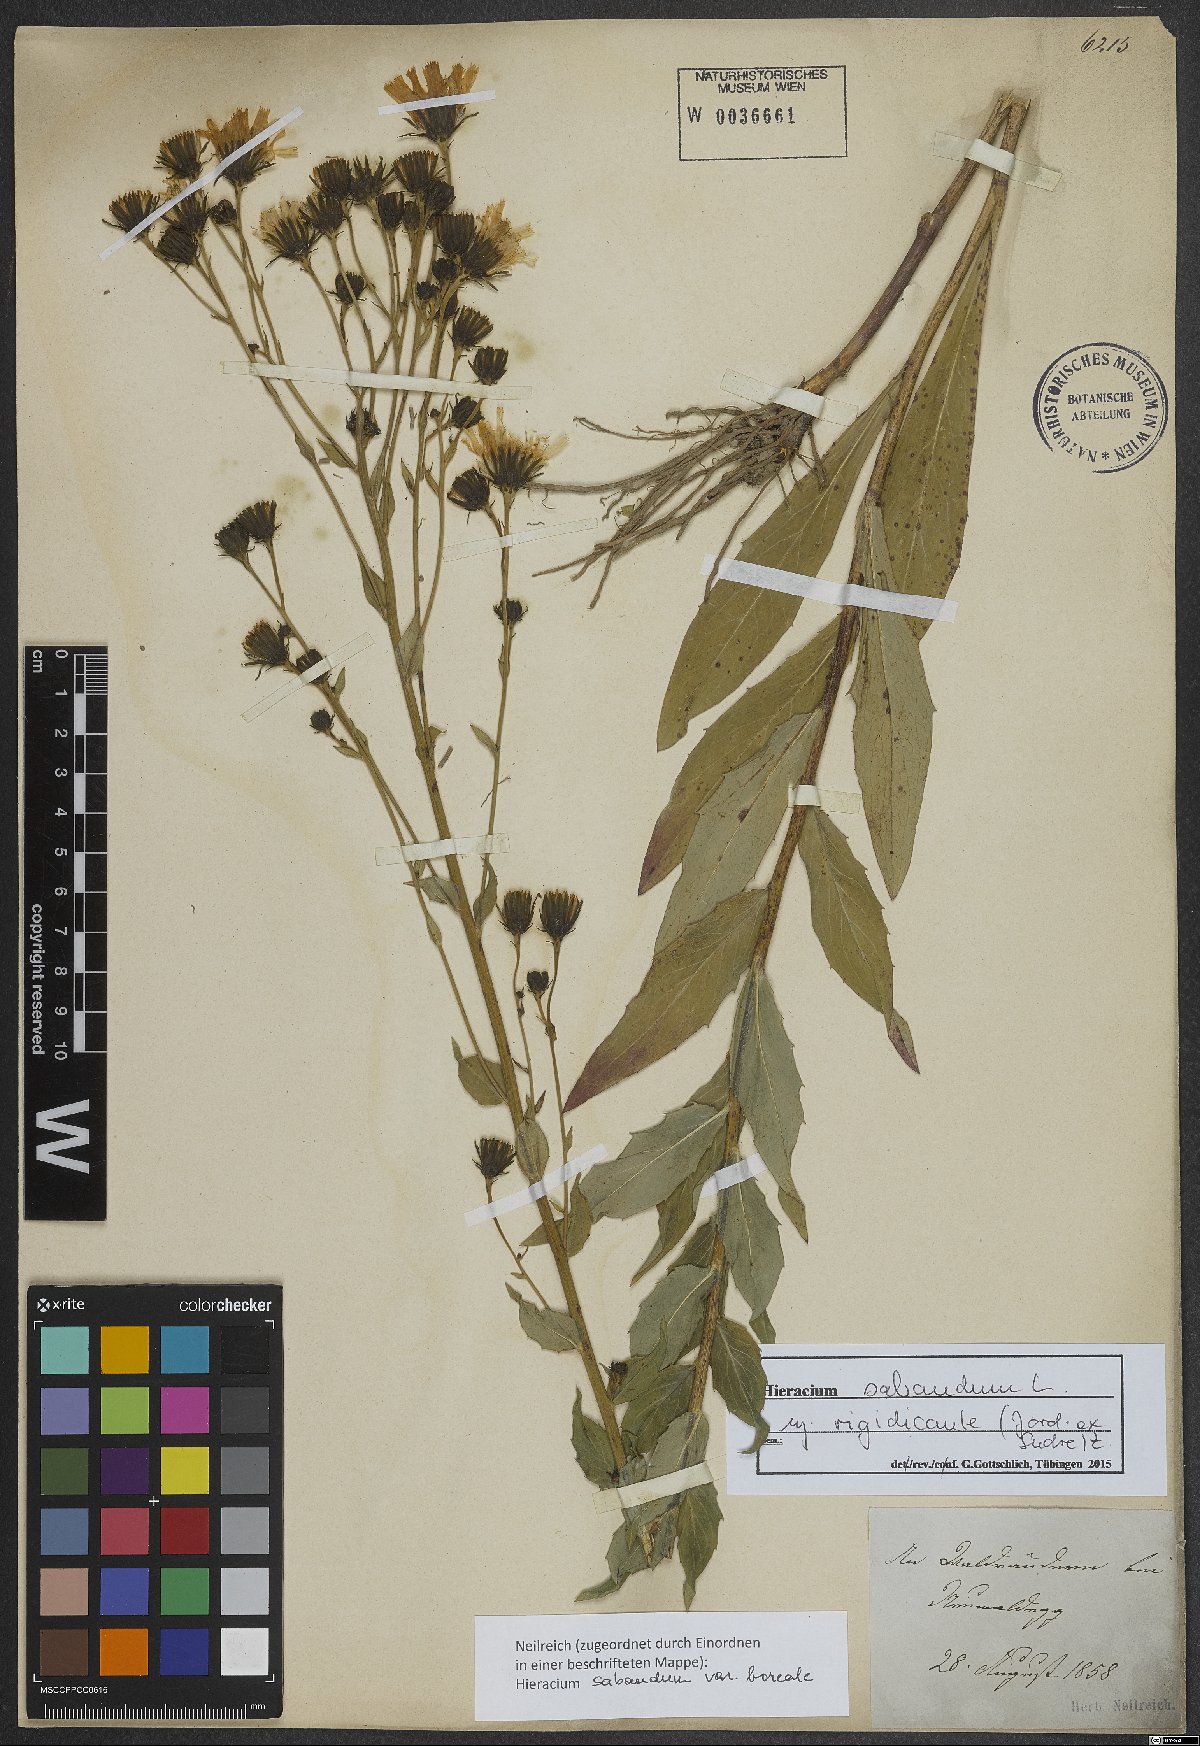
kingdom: Plantae
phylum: Tracheophyta
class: Magnoliopsida
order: Asterales
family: Asteraceae
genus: Hieracium
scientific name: Hieracium sabaudum
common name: New england hawkweed
